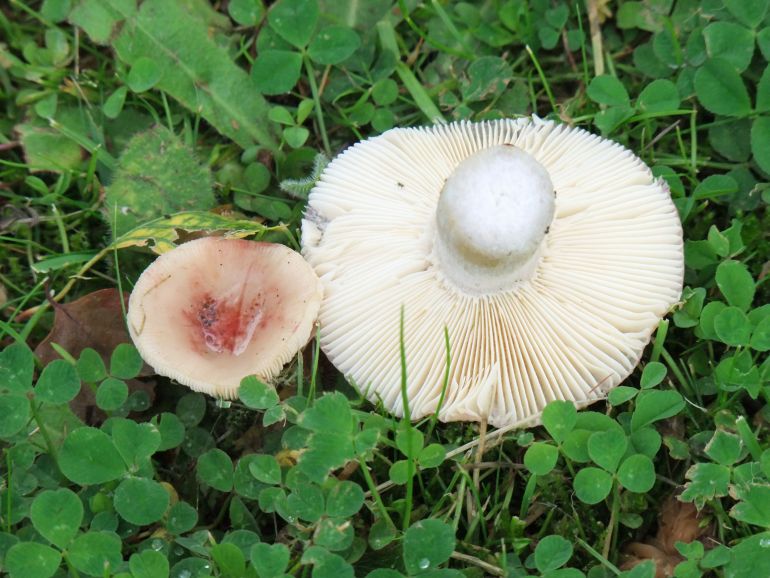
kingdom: Fungi
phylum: Basidiomycota
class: Agaricomycetes
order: Russulales
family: Russulaceae
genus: Russula
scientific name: Russula depallens
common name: falmende skørhat
